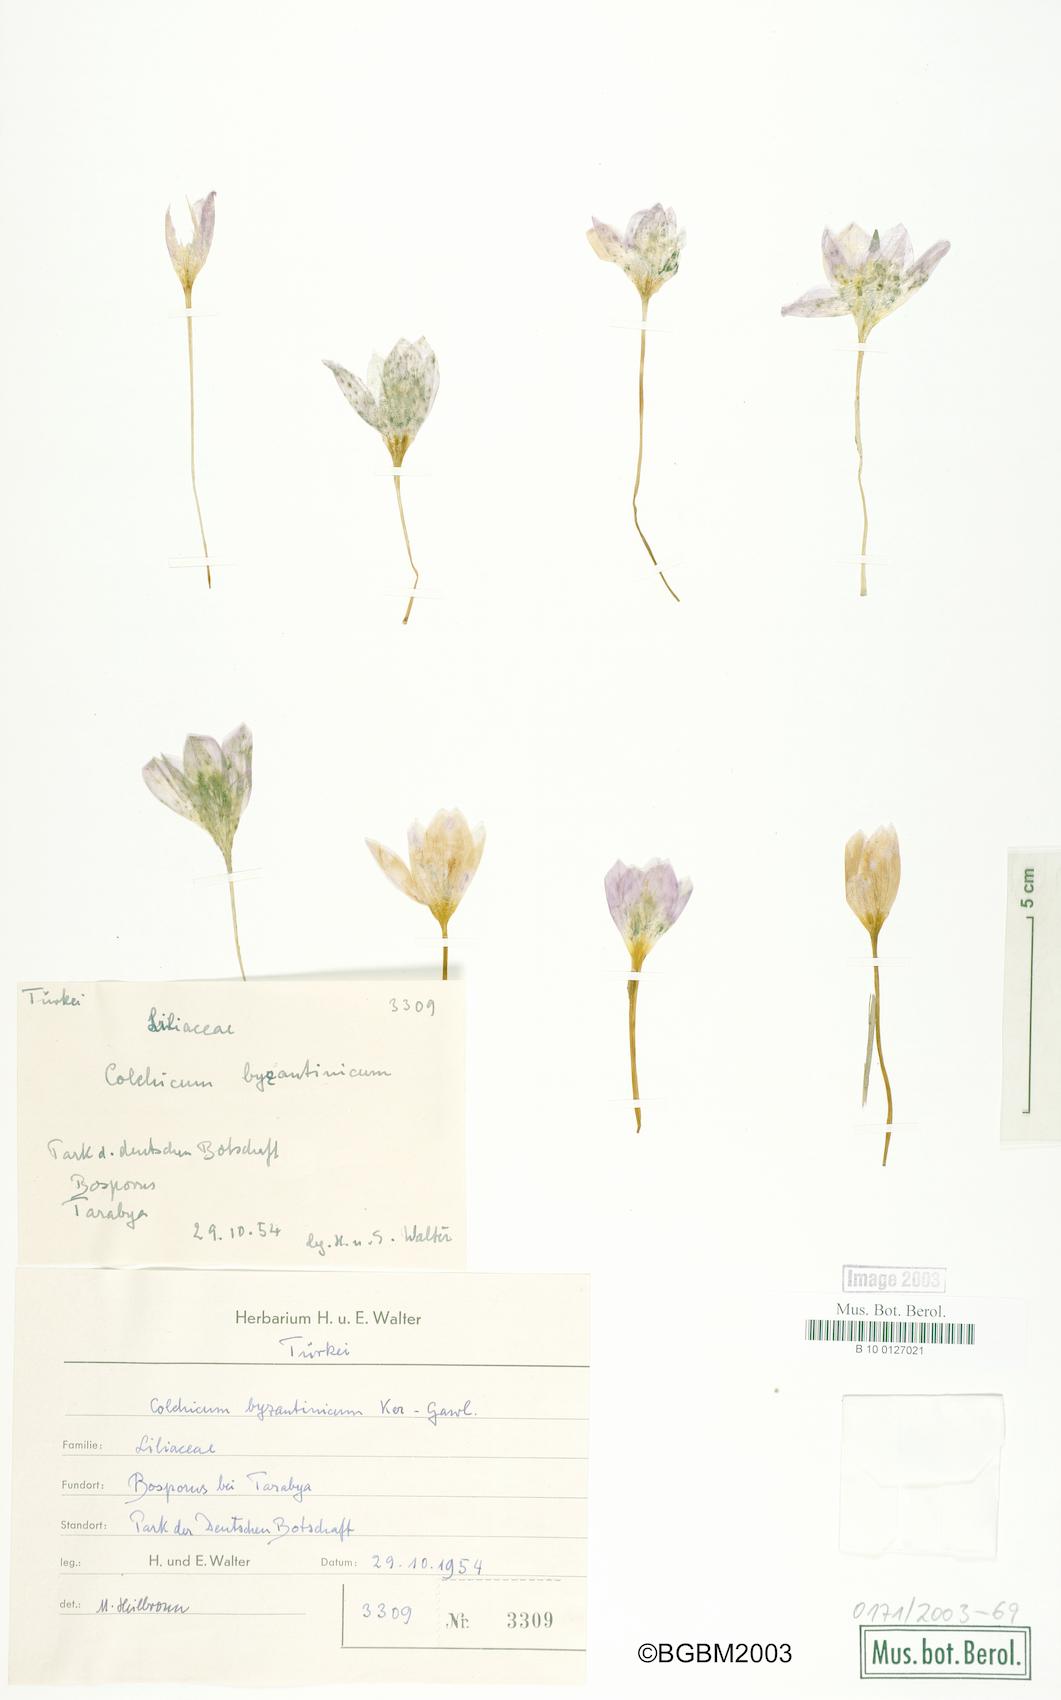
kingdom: Plantae
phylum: Tracheophyta
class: Liliopsida
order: Liliales
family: Colchicaceae
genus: Colchicum
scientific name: Colchicum byzantinum
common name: False autumn crocus
